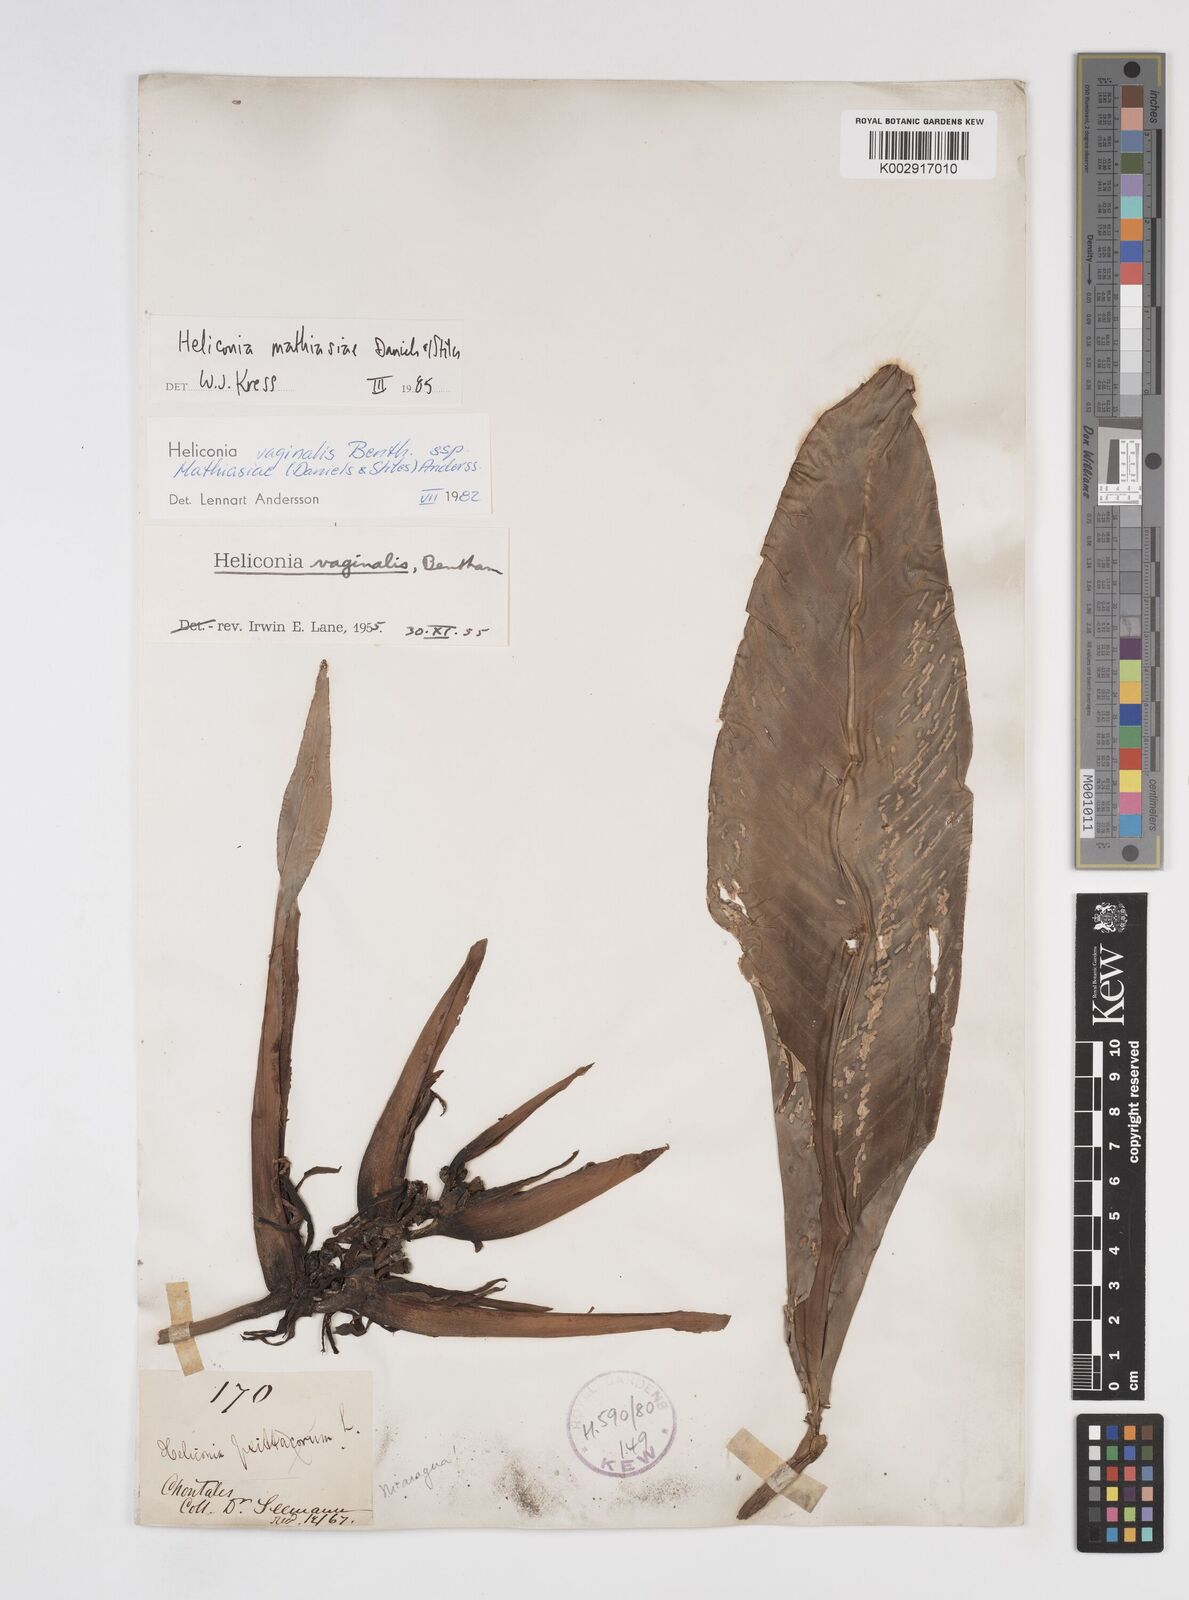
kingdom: Plantae
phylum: Tracheophyta
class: Liliopsida
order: Zingiberales
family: Heliconiaceae
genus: Heliconia
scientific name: Heliconia mathiasiae
